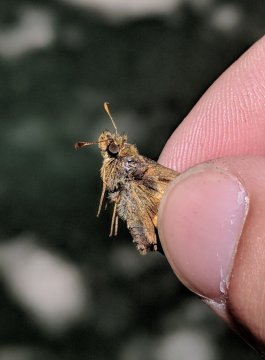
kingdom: Animalia
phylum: Arthropoda
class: Insecta
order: Lepidoptera
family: Hesperiidae
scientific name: Hesperiidae
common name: Skippers
